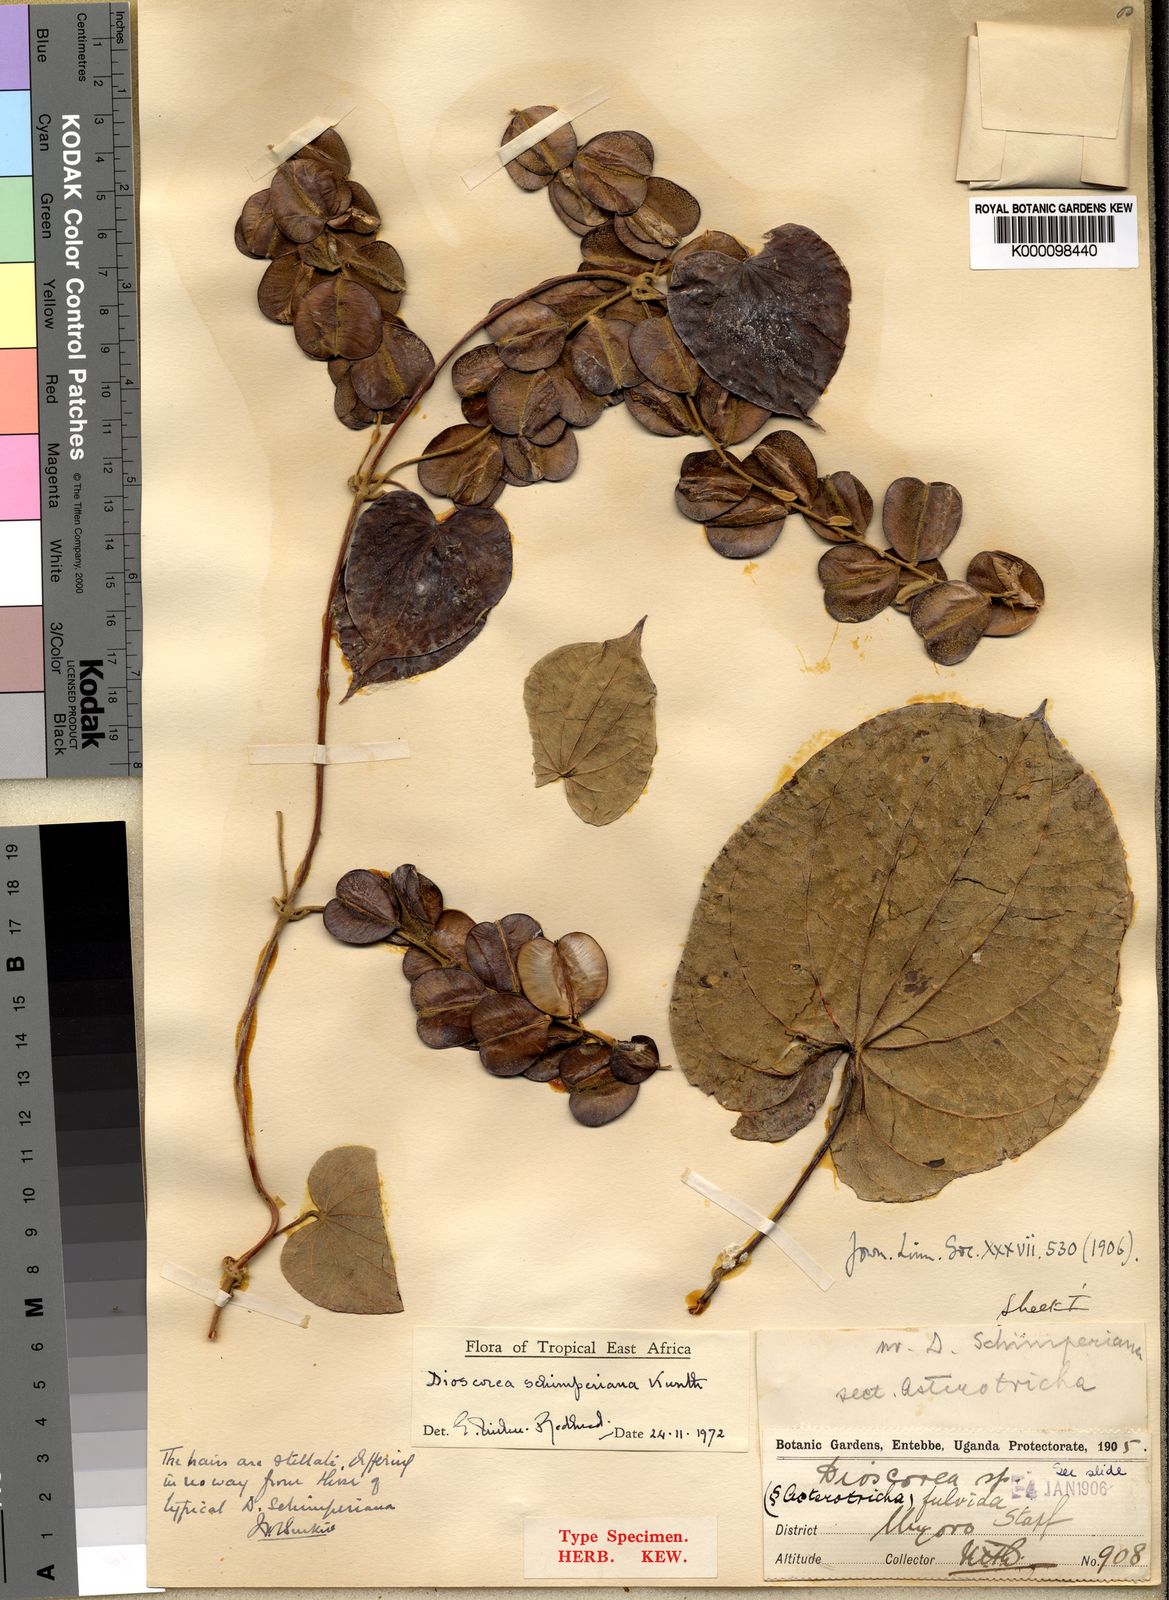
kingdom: Plantae
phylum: Tracheophyta
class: Liliopsida
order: Dioscoreales
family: Dioscoreaceae
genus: Dioscorea
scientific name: Dioscorea schimperiana
